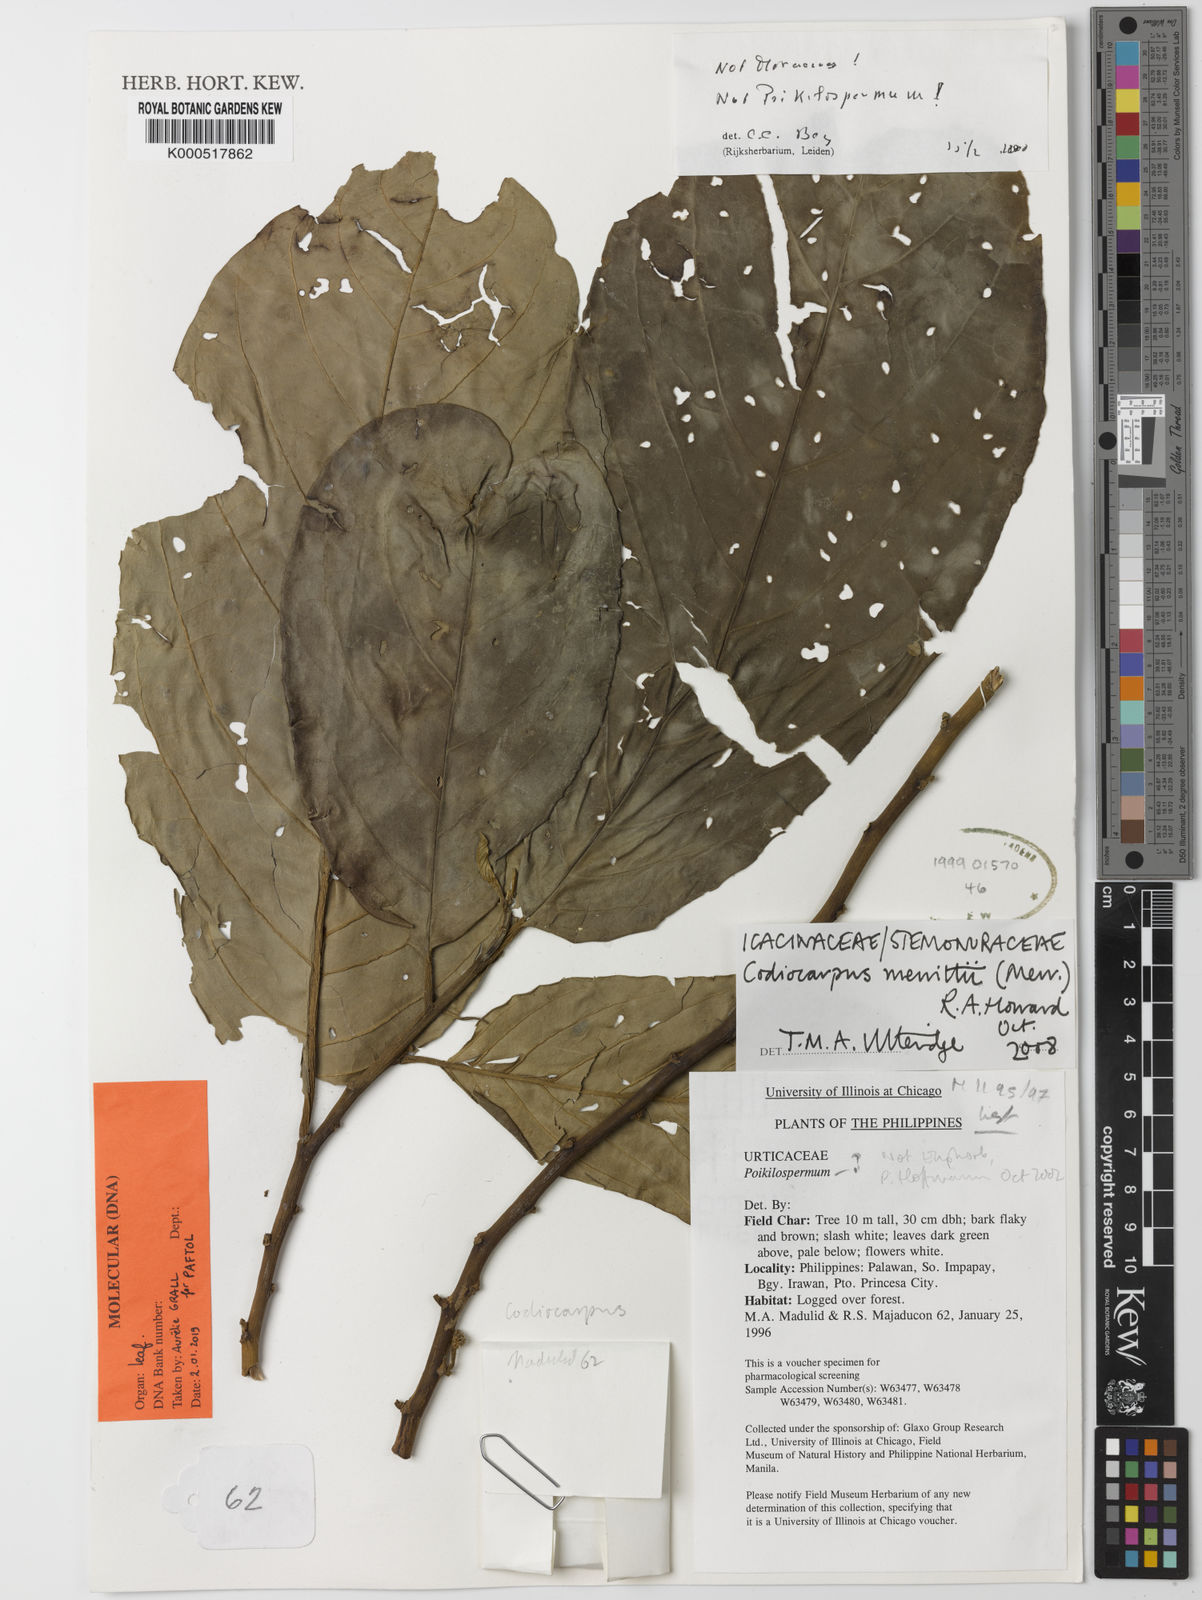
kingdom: Plantae
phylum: Tracheophyta
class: Magnoliopsida
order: Cardiopteridales
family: Stemonuraceae
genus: Codiocarpus
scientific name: Codiocarpus merrittii
